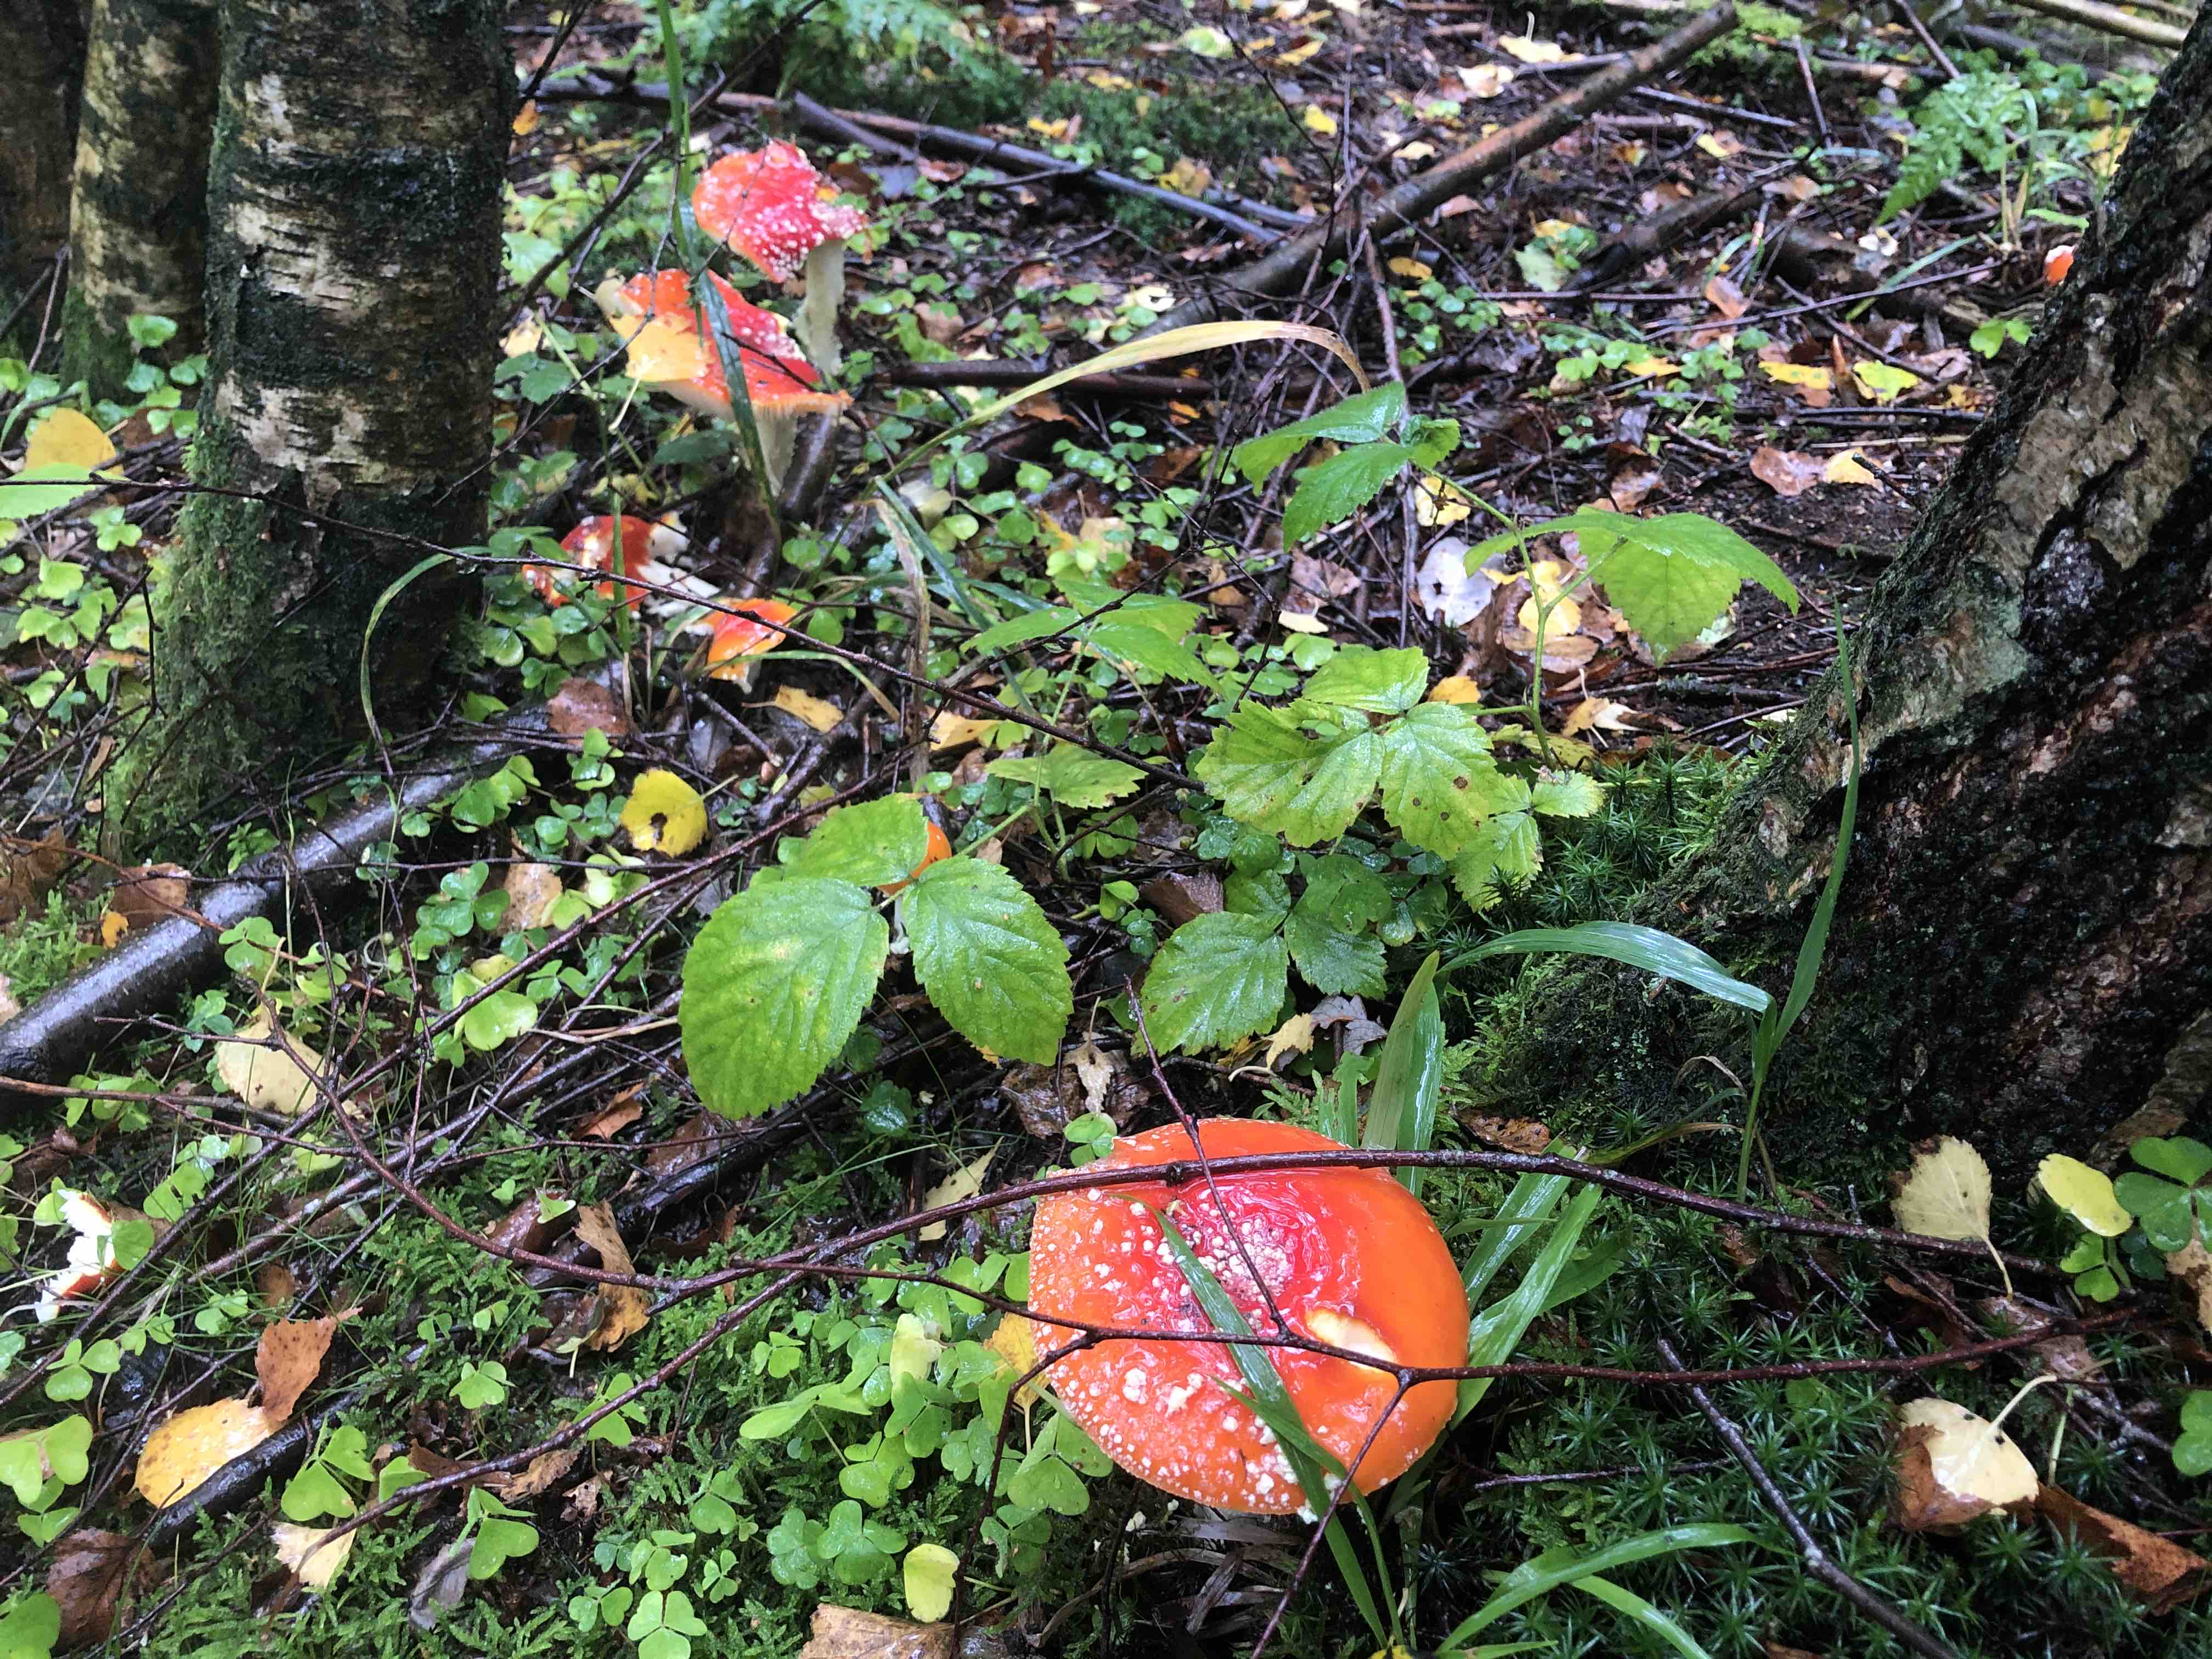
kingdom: Fungi
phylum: Basidiomycota
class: Agaricomycetes
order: Agaricales
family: Amanitaceae
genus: Amanita
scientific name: Amanita muscaria
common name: rød fluesvamp
